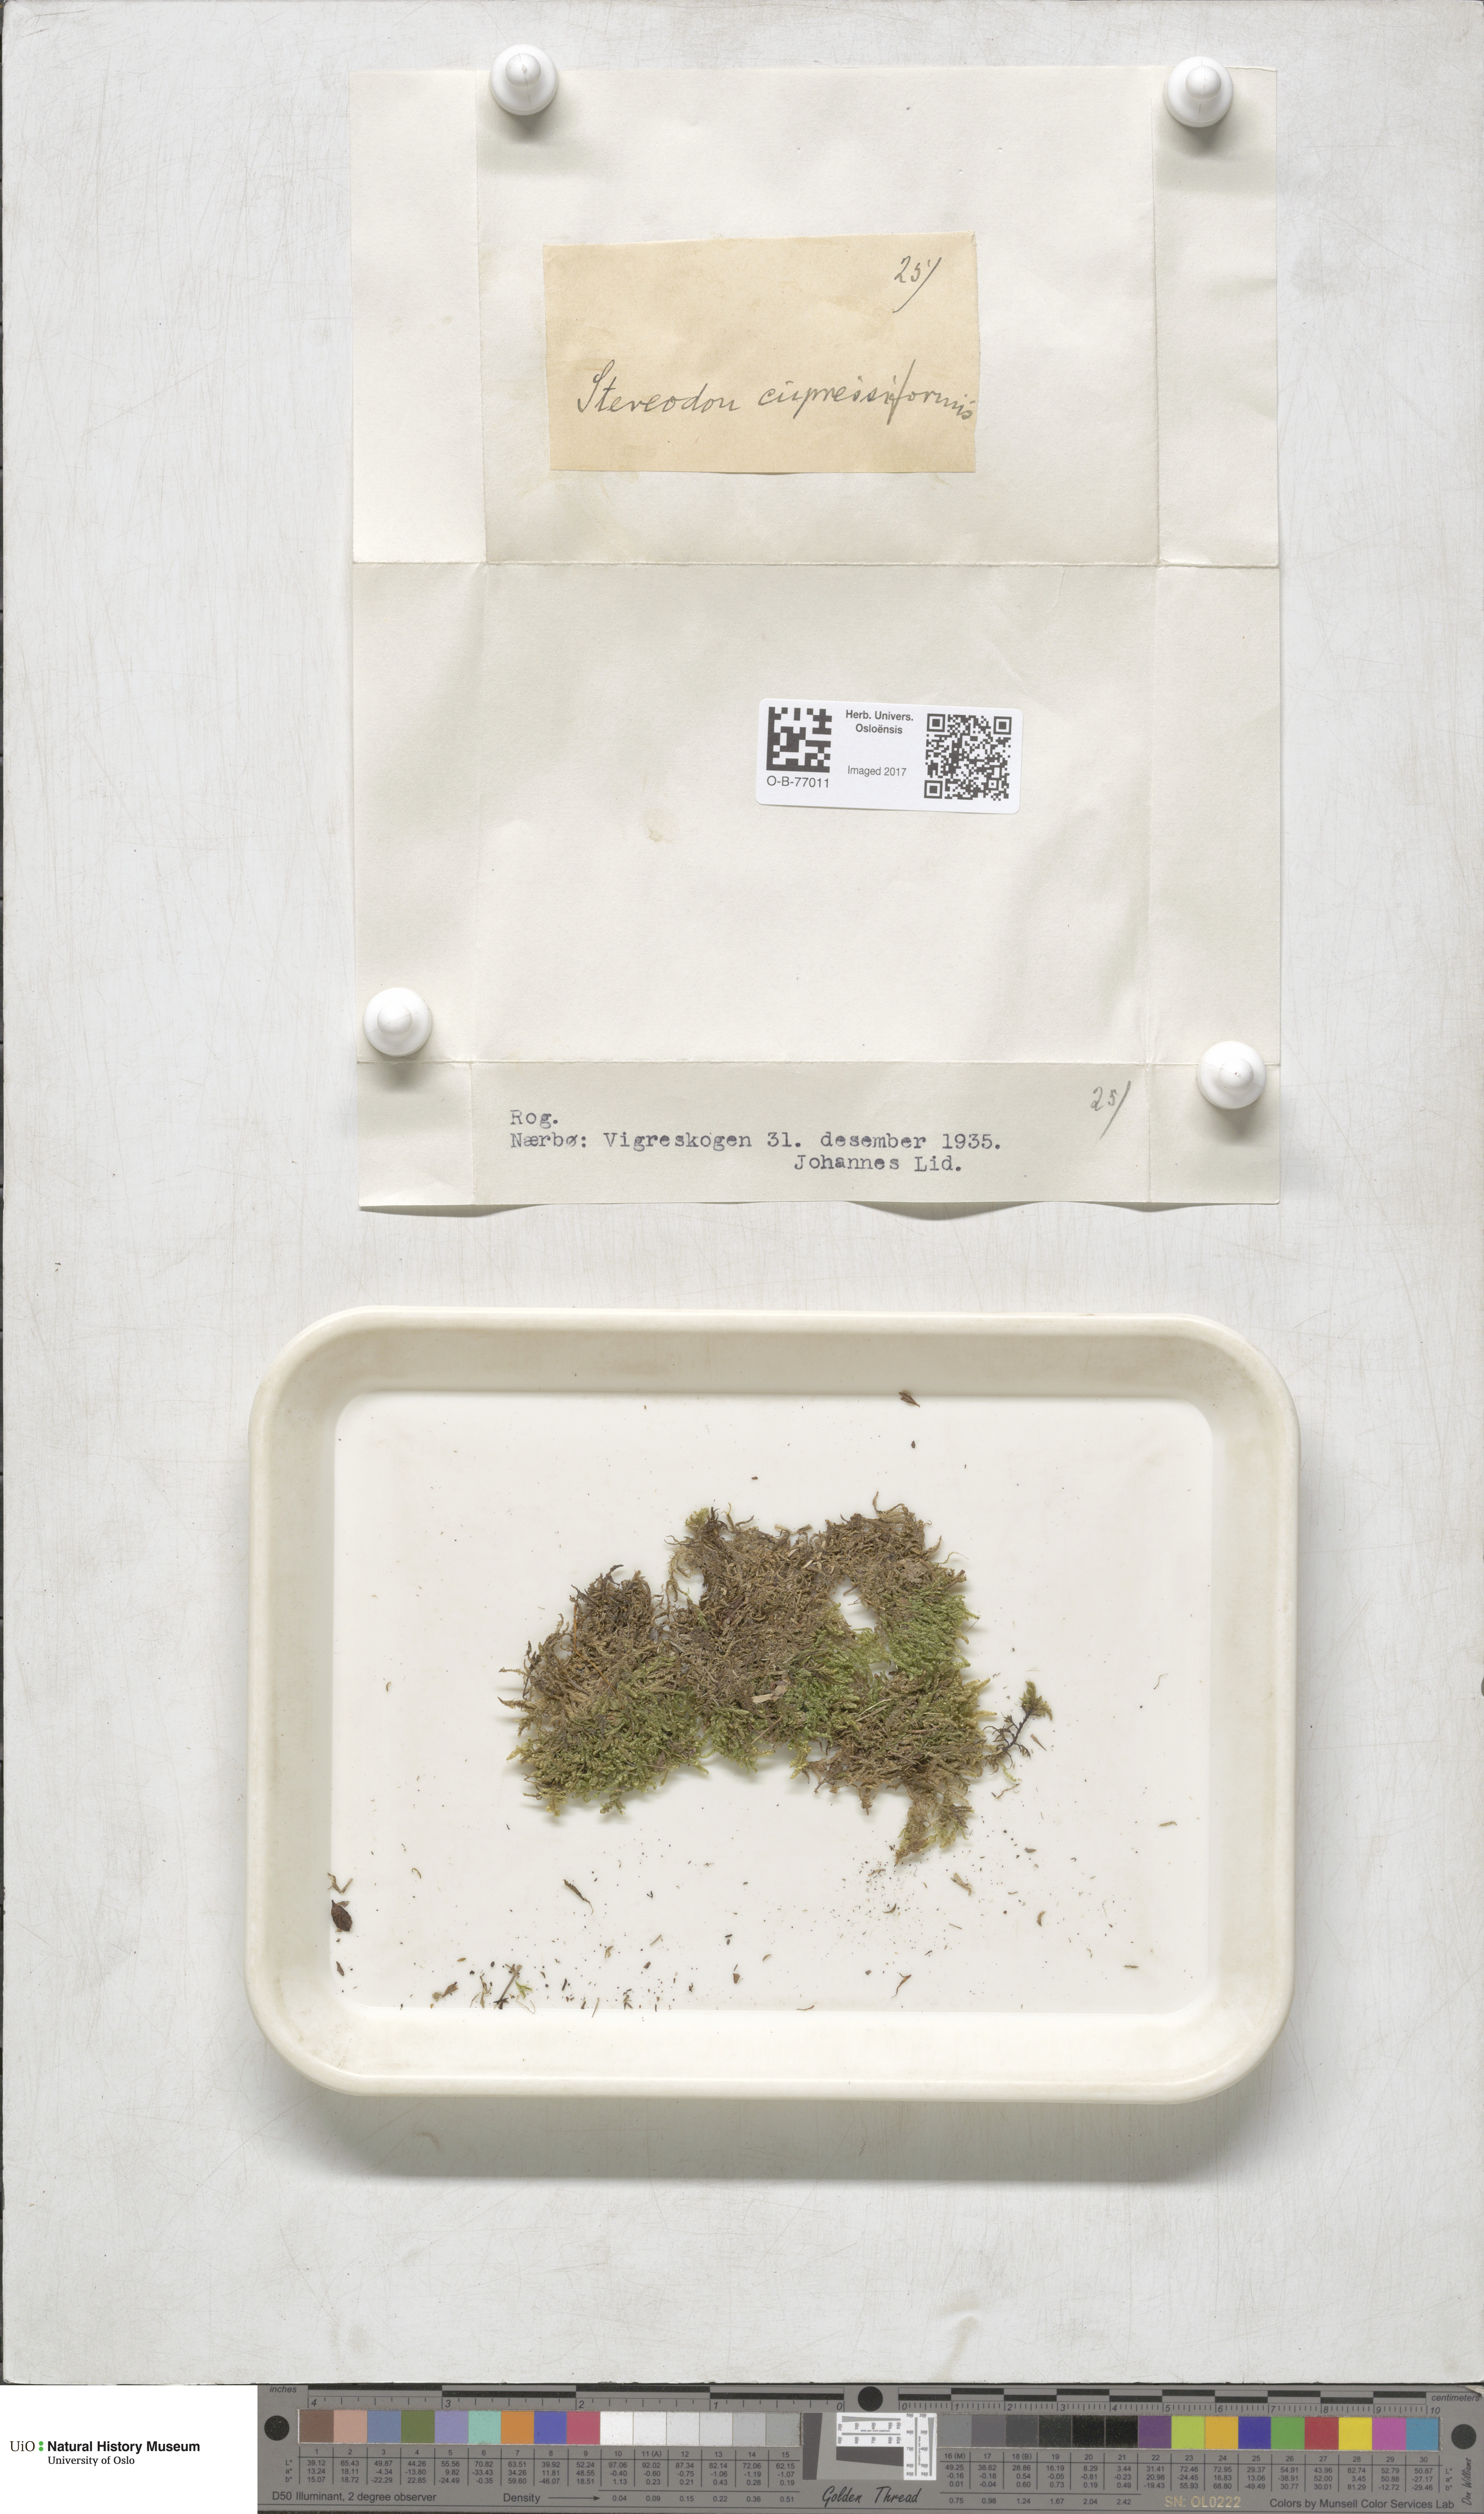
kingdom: Plantae
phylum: Bryophyta
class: Bryopsida
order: Hypnales
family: Hypnaceae
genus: Hypnum
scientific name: Hypnum cupressiforme
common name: Cypress-leaved plait-moss
